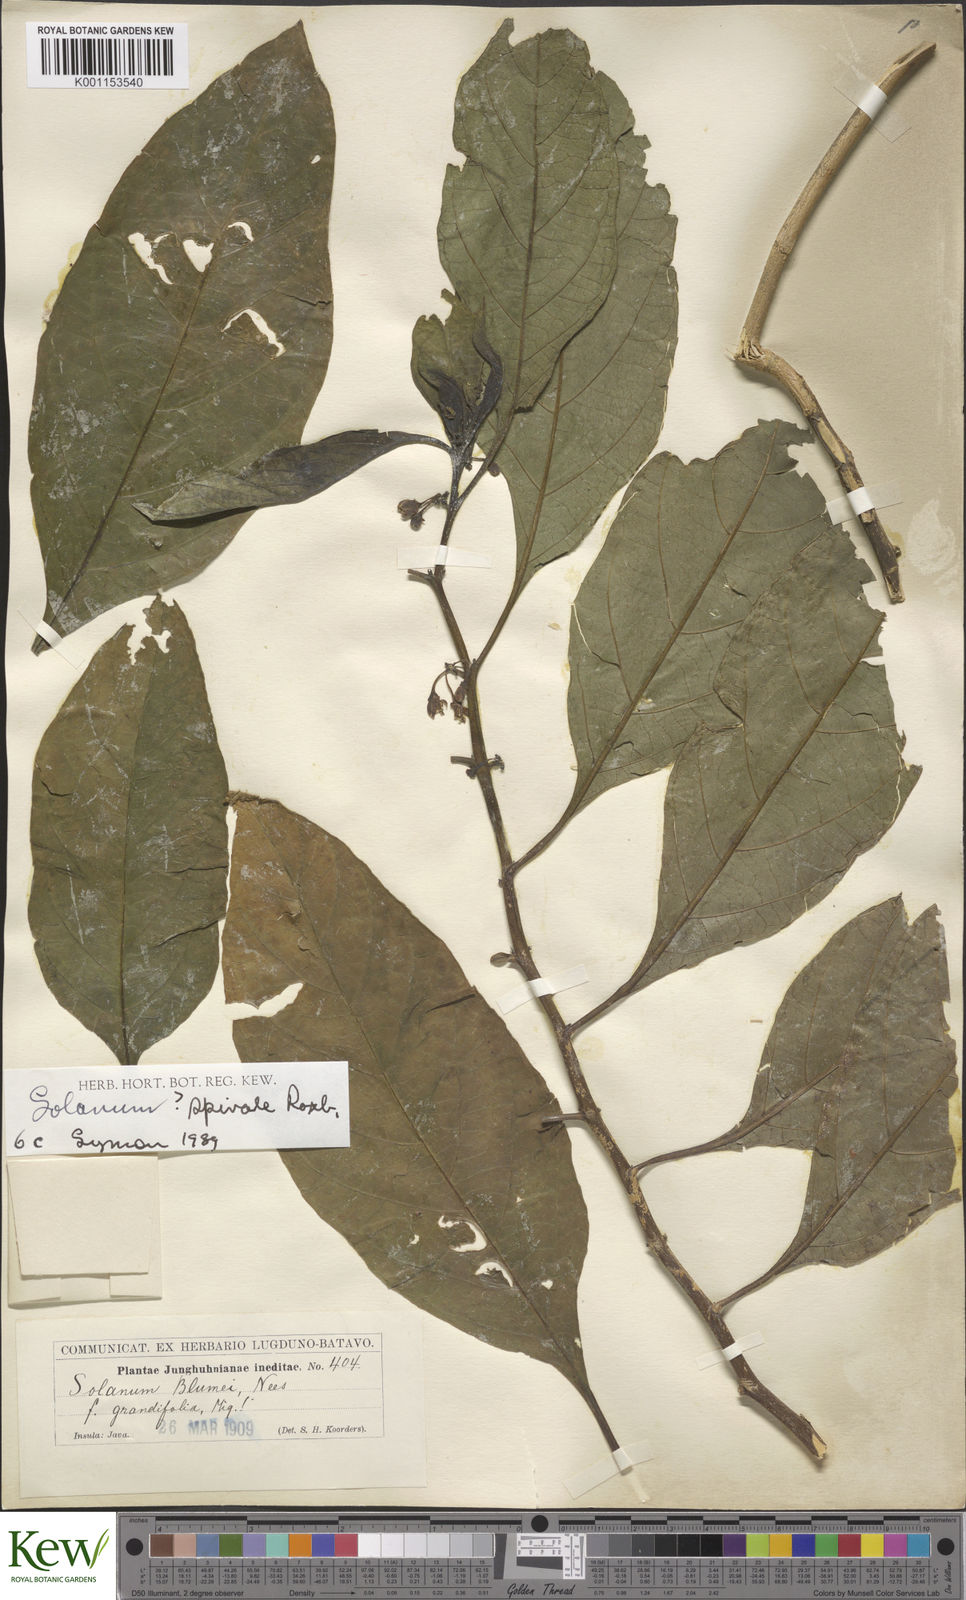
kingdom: Plantae
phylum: Tracheophyta
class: Magnoliopsida
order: Solanales
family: Solanaceae
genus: Solanum
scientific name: Solanum spirale
